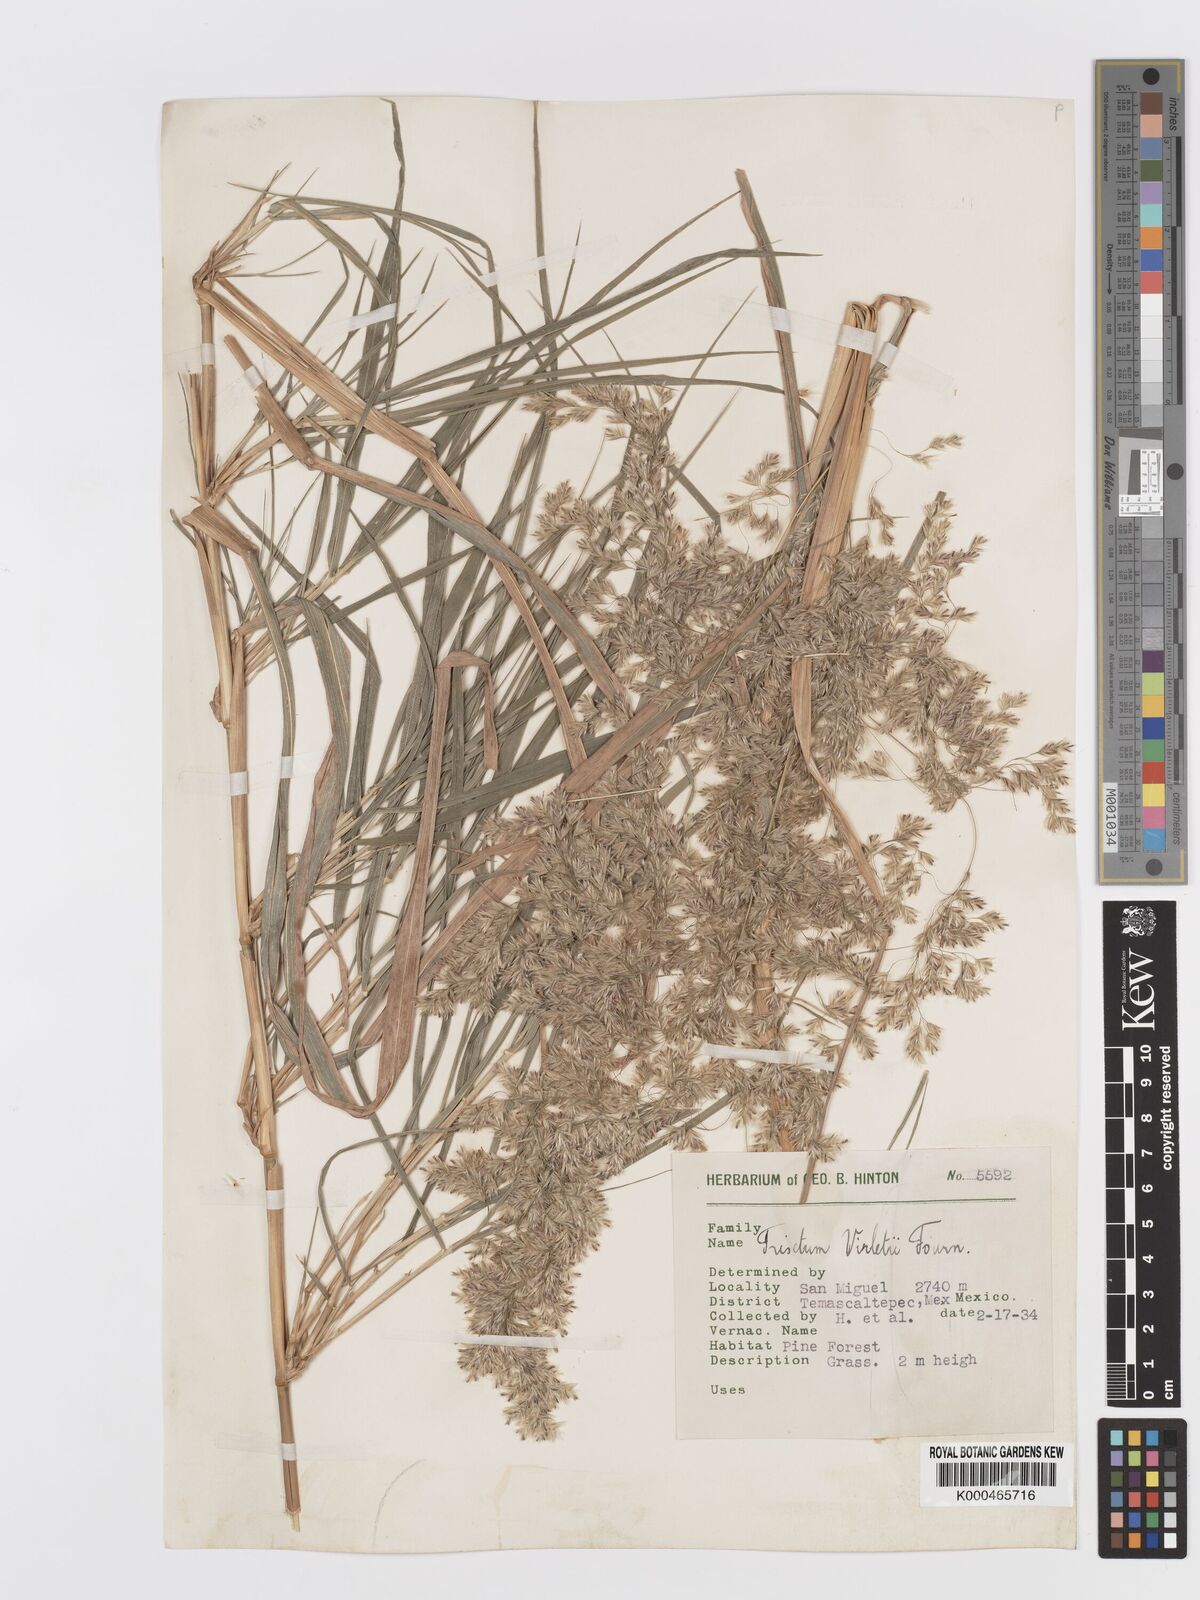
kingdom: Plantae
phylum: Tracheophyta
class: Liliopsida
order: Poales
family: Poaceae
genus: Peyritschia
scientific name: Peyritschia virletii
